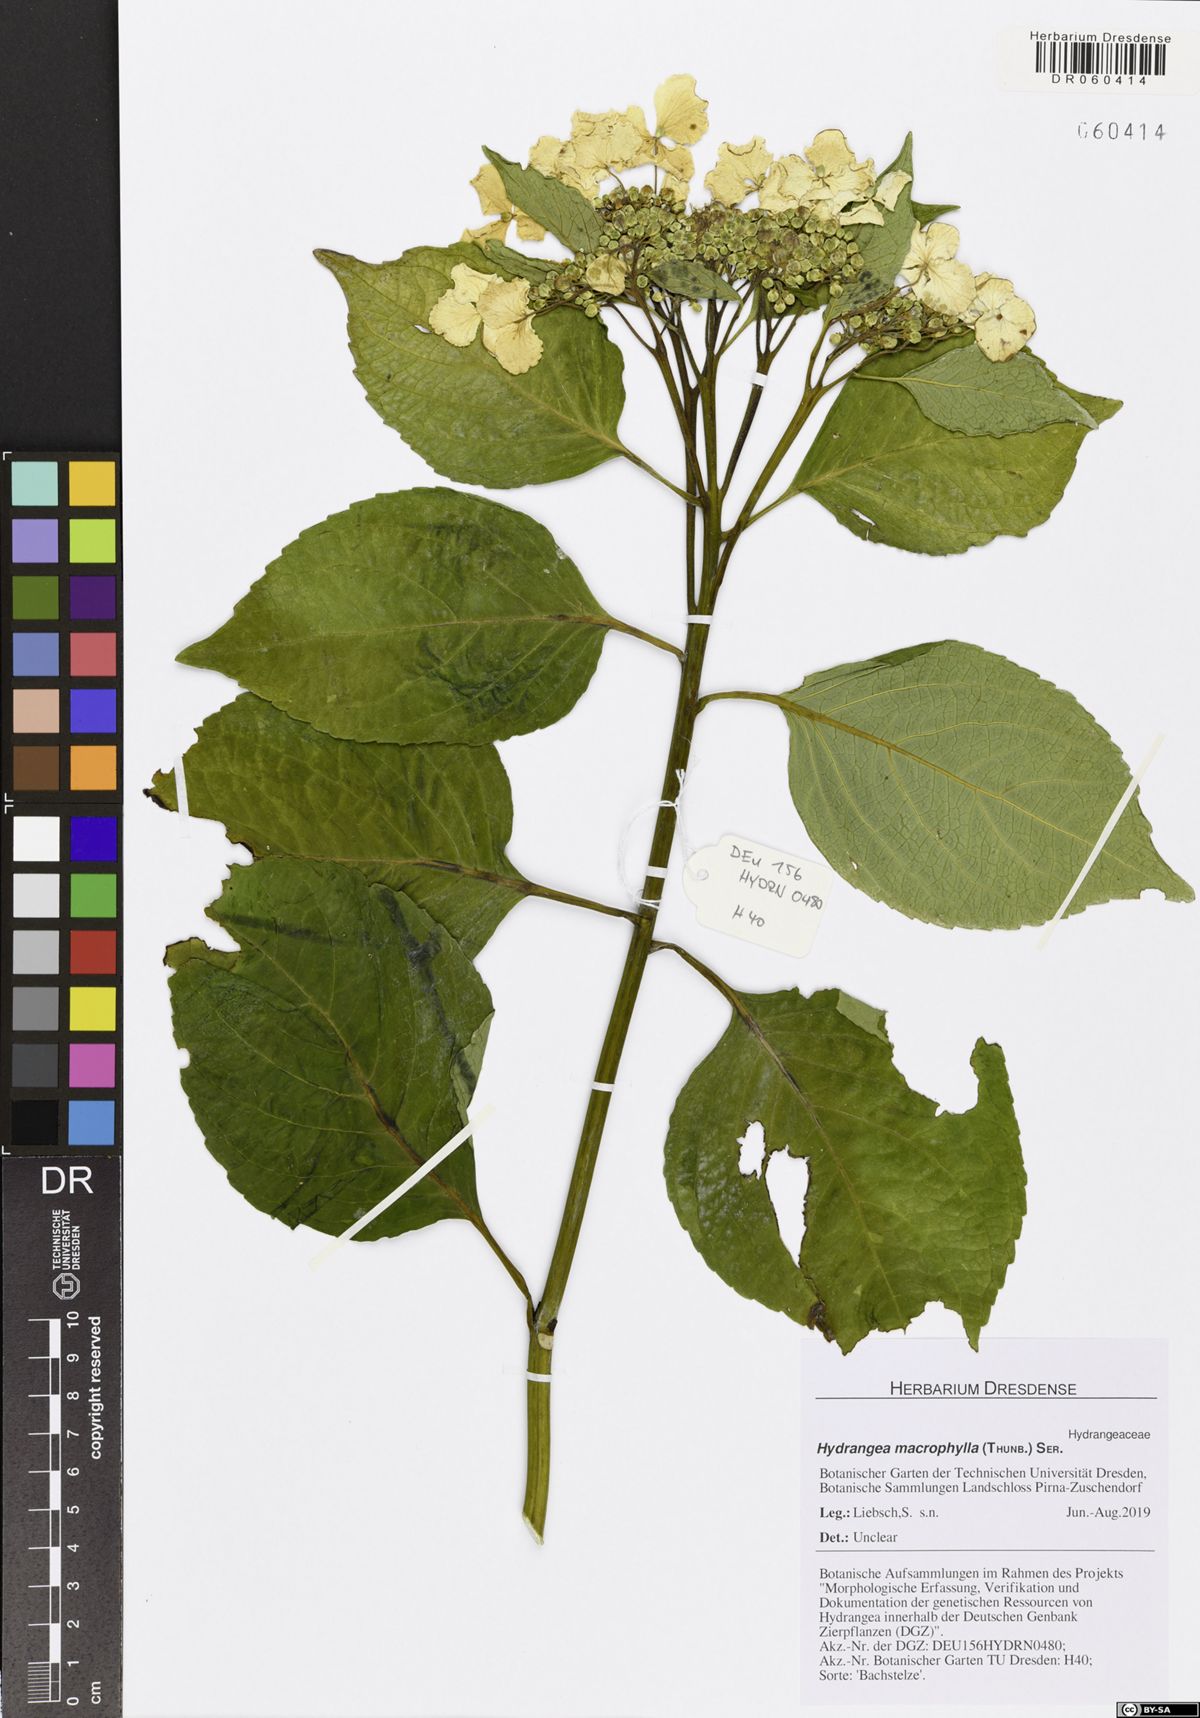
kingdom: Plantae
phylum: Tracheophyta
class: Magnoliopsida
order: Cornales
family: Hydrangeaceae
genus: Hydrangea
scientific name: Hydrangea macrophylla
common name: Hydrangea
